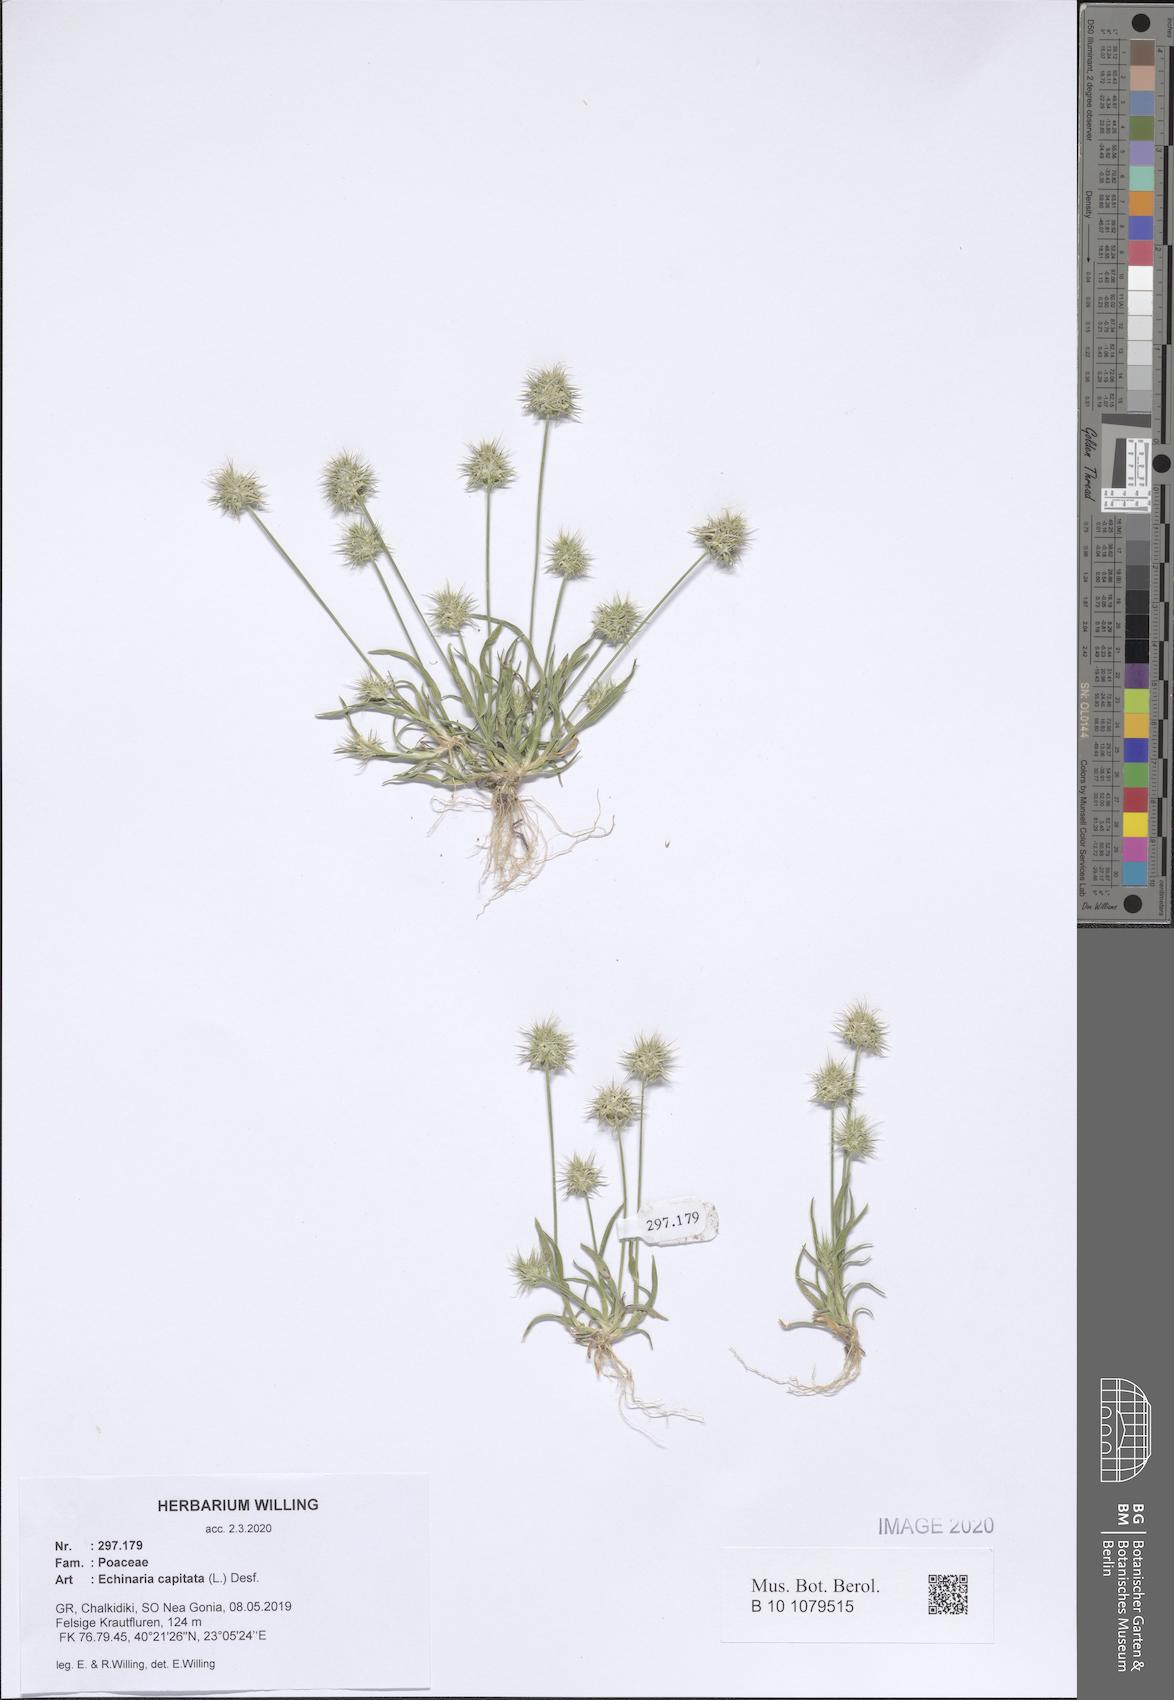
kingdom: Plantae
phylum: Tracheophyta
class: Liliopsida
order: Poales
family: Poaceae
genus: Echinaria
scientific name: Echinaria capitata
